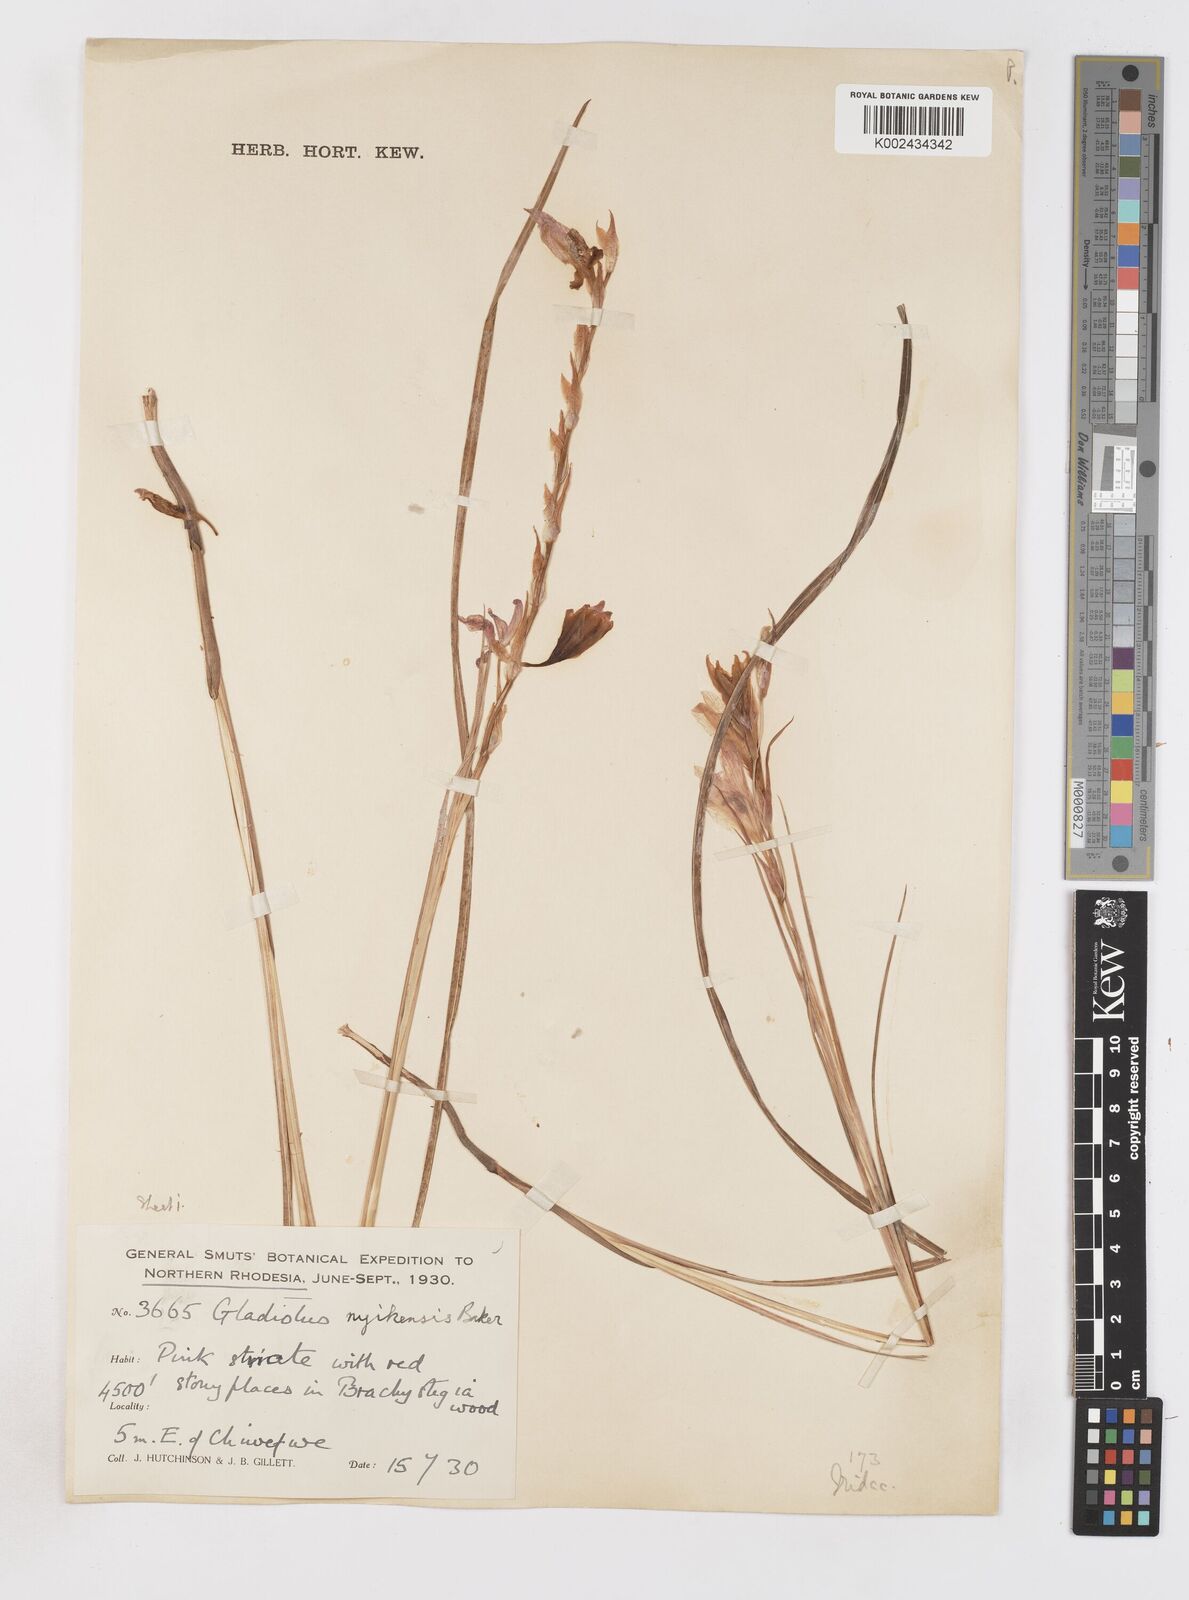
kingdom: Plantae
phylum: Tracheophyta
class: Liliopsida
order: Asparagales
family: Iridaceae
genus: Gladiolus
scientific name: Gladiolus erectiflorus
